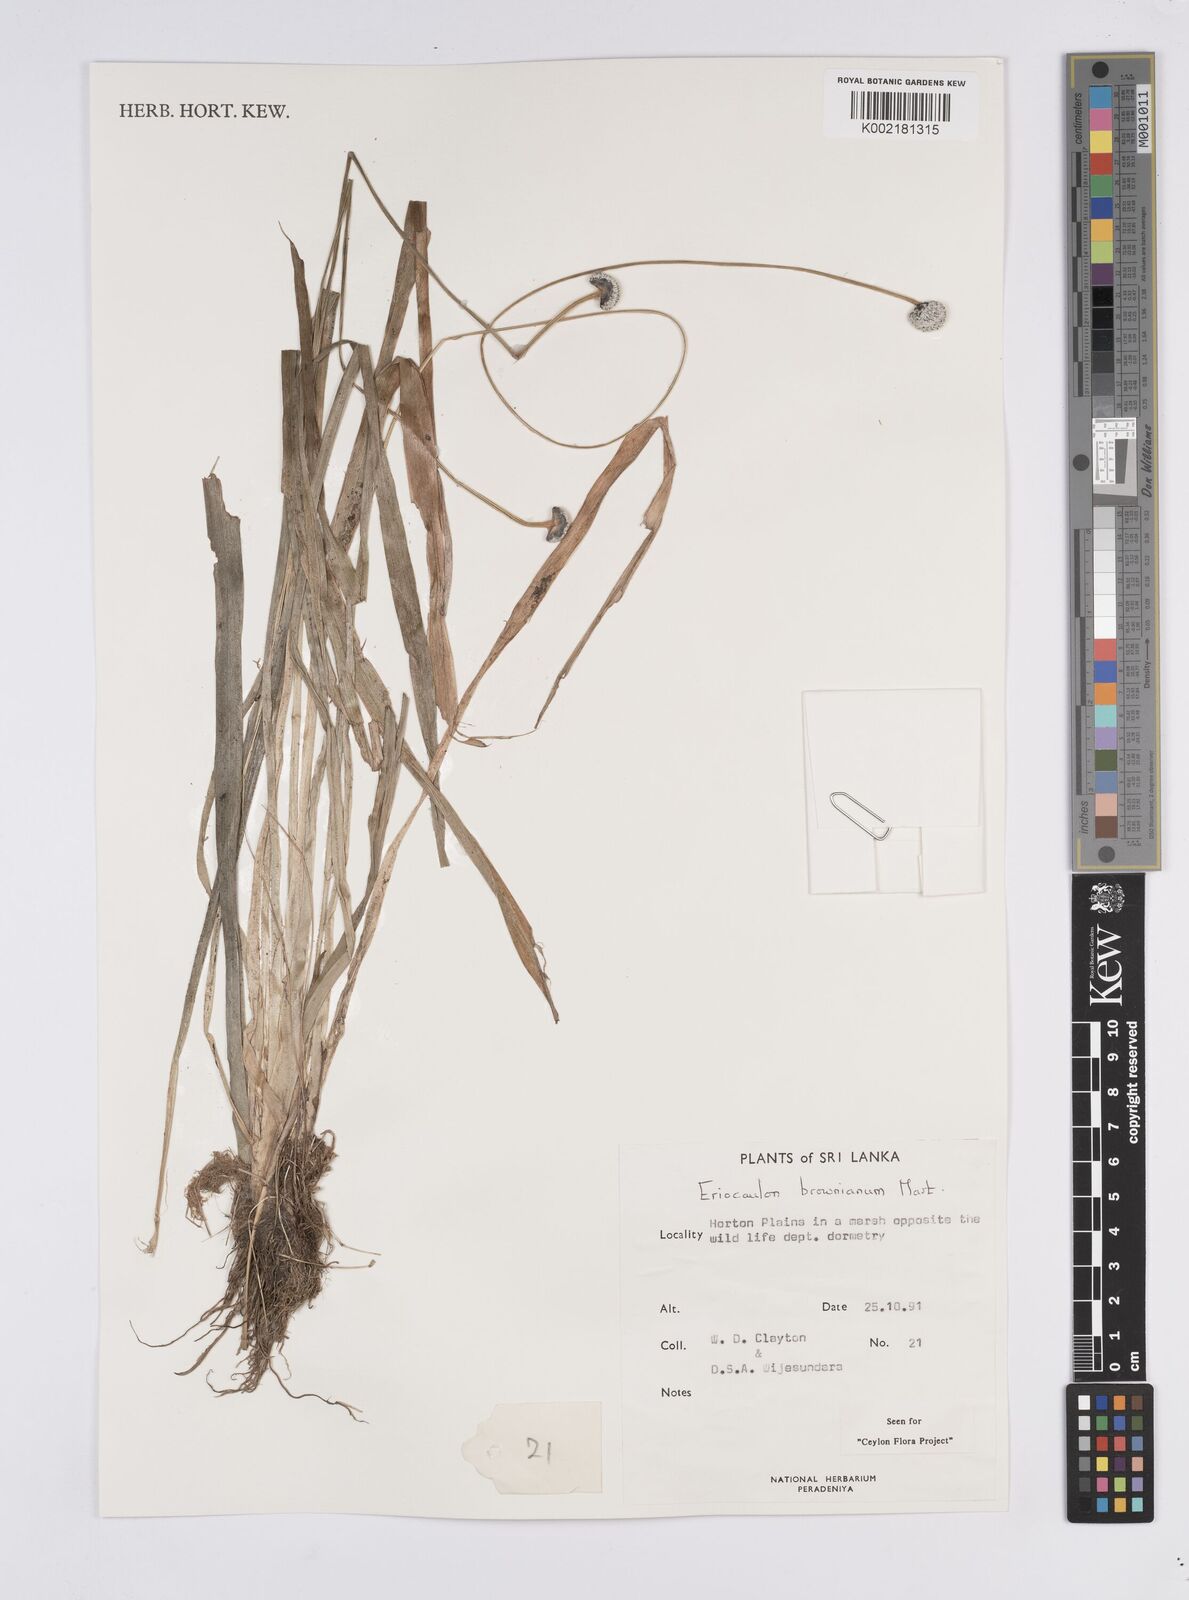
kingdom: Plantae
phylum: Tracheophyta
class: Liliopsida
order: Poales
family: Eriocaulaceae
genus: Eriocaulon
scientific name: Eriocaulon brownianum
